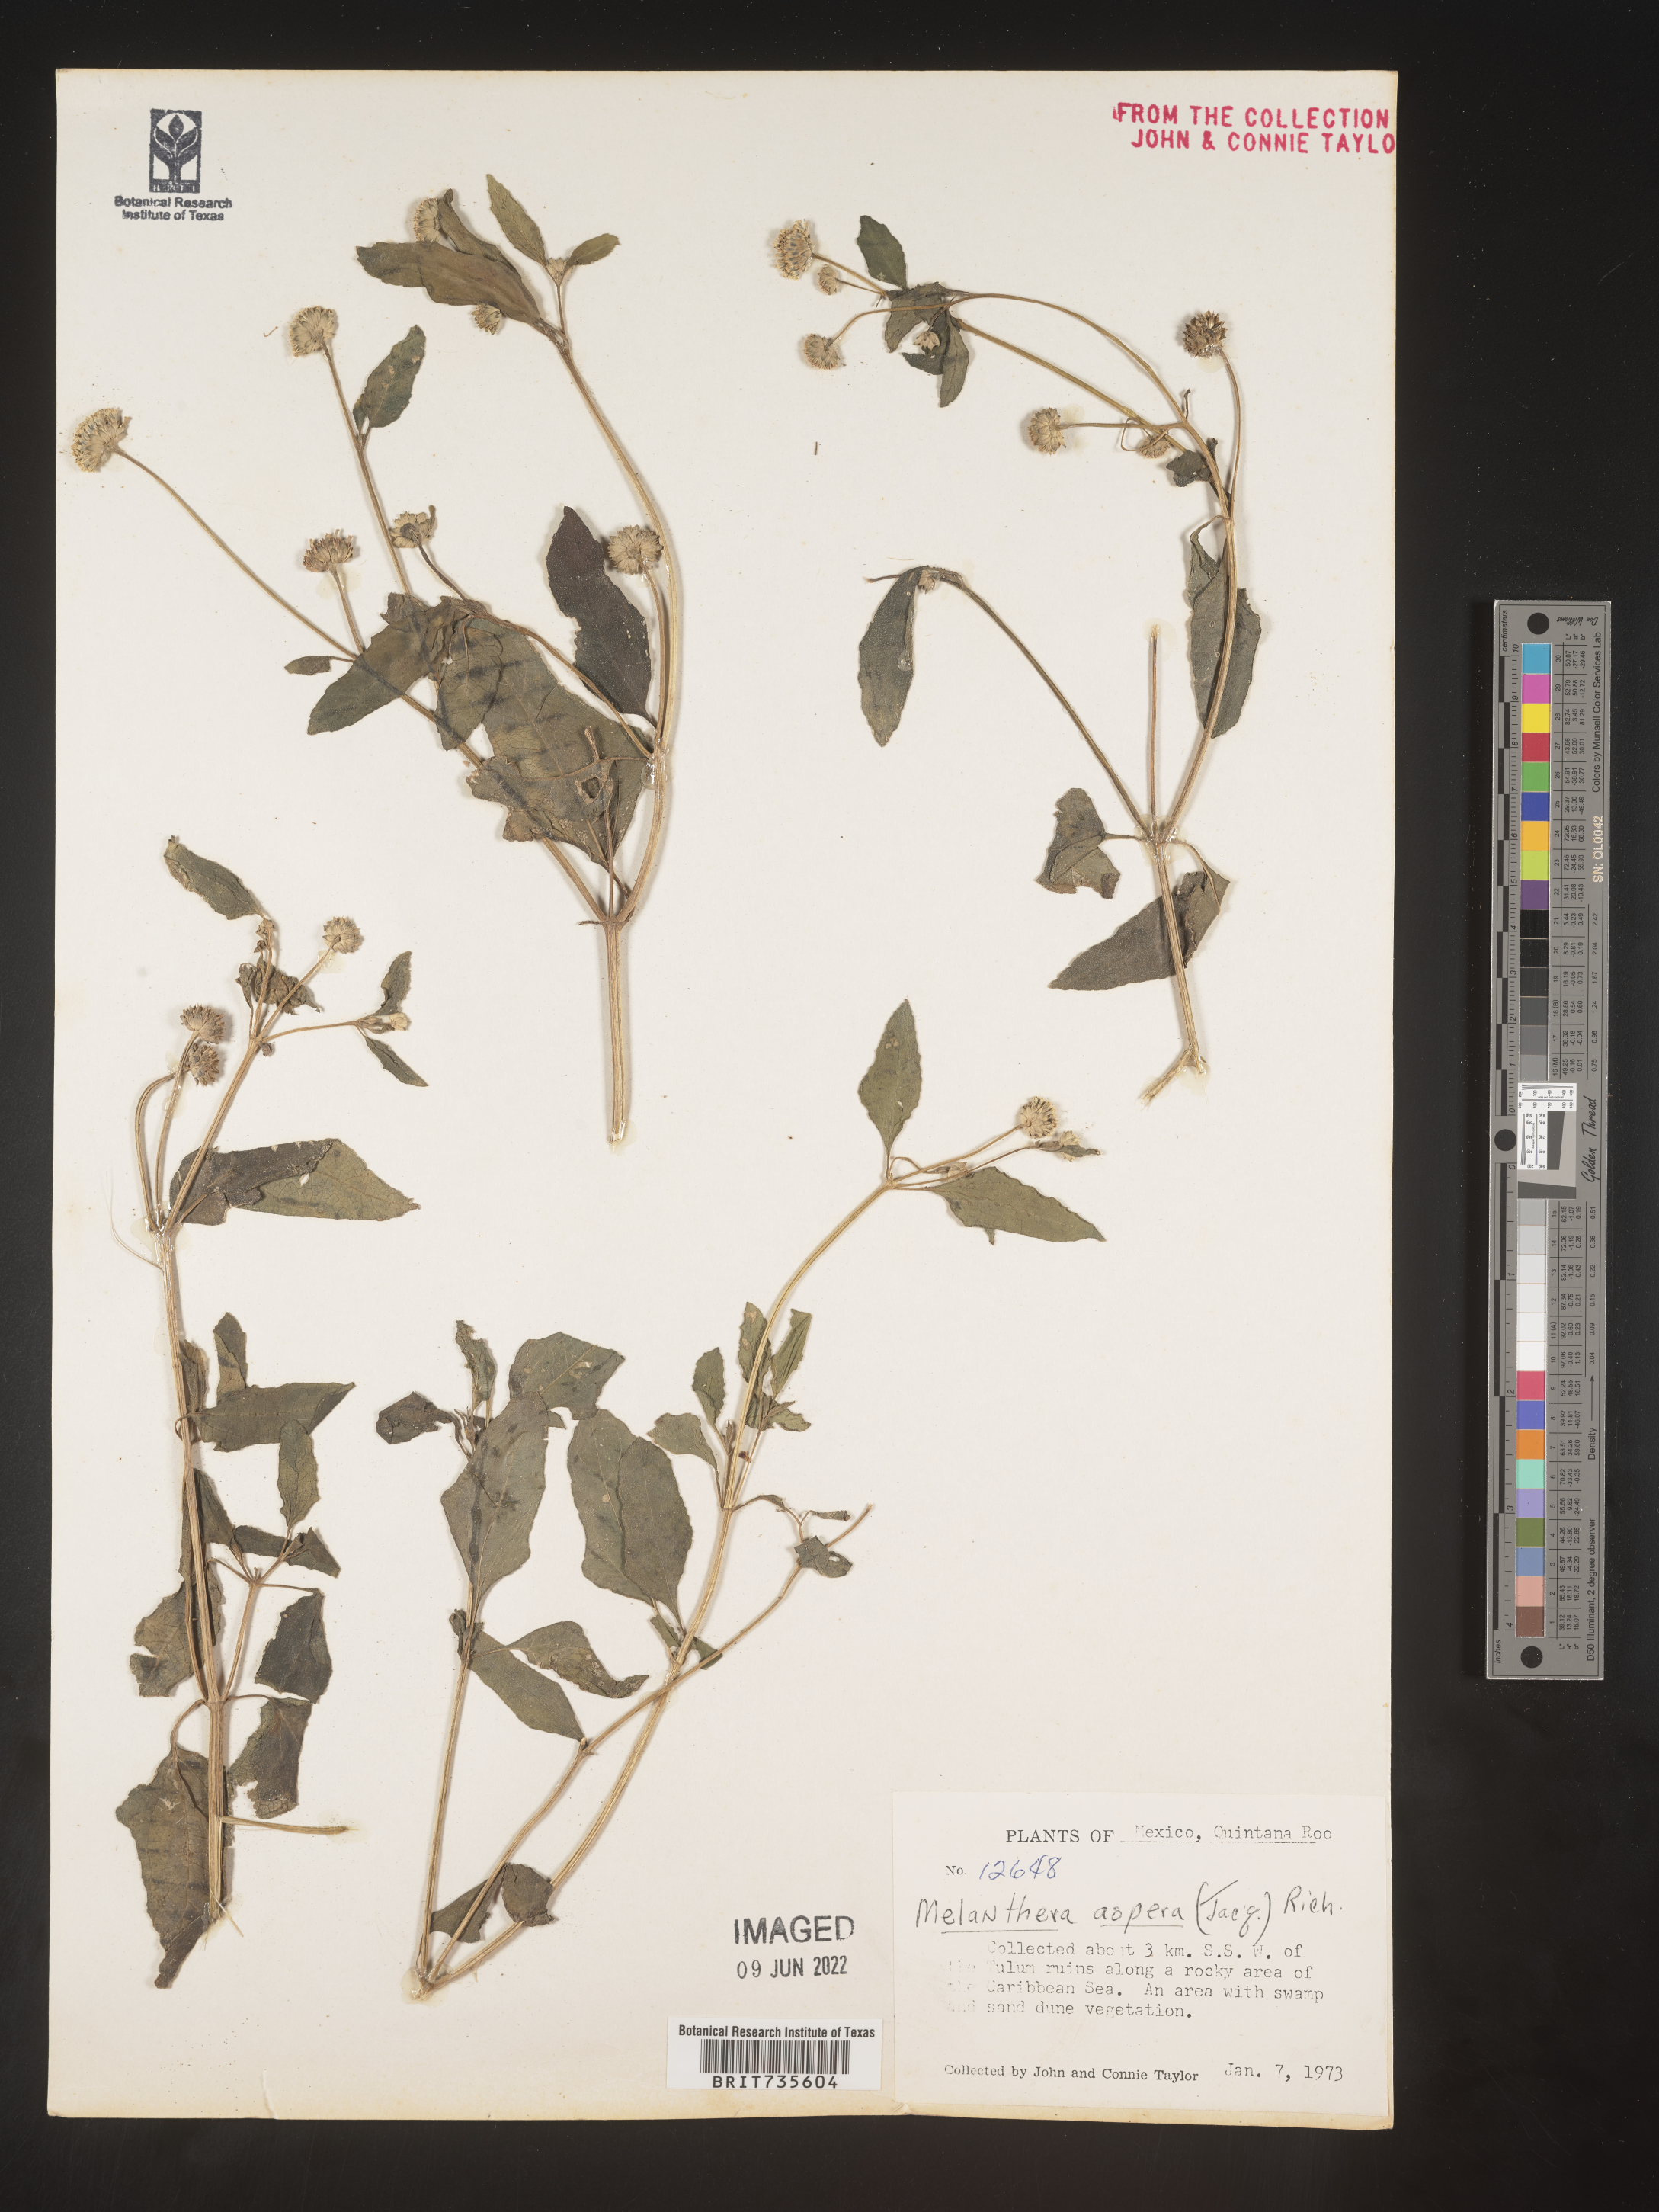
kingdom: Plantae
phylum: Tracheophyta
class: Magnoliopsida
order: Asterales
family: Asteraceae
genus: Melanthera
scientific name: Melanthera
